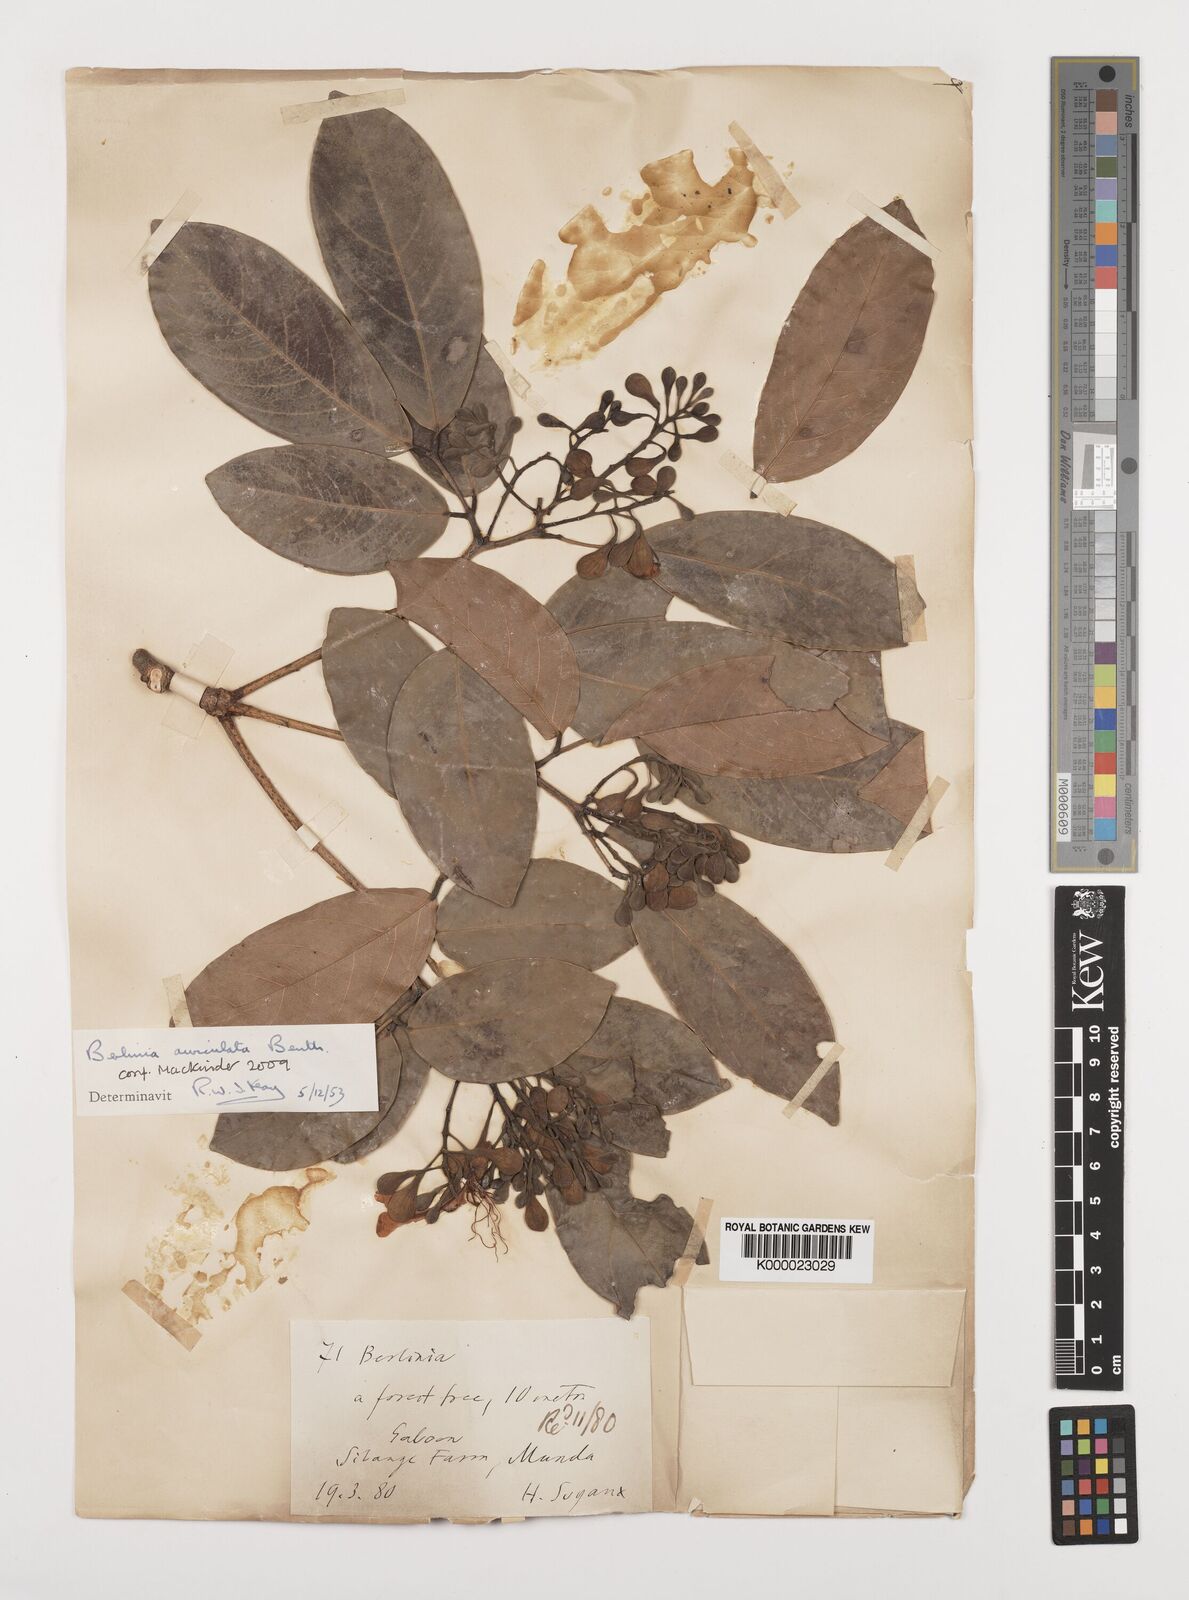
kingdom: Plantae
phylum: Tracheophyta
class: Magnoliopsida
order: Fabales
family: Fabaceae
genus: Berlinia
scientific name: Berlinia auriculata
